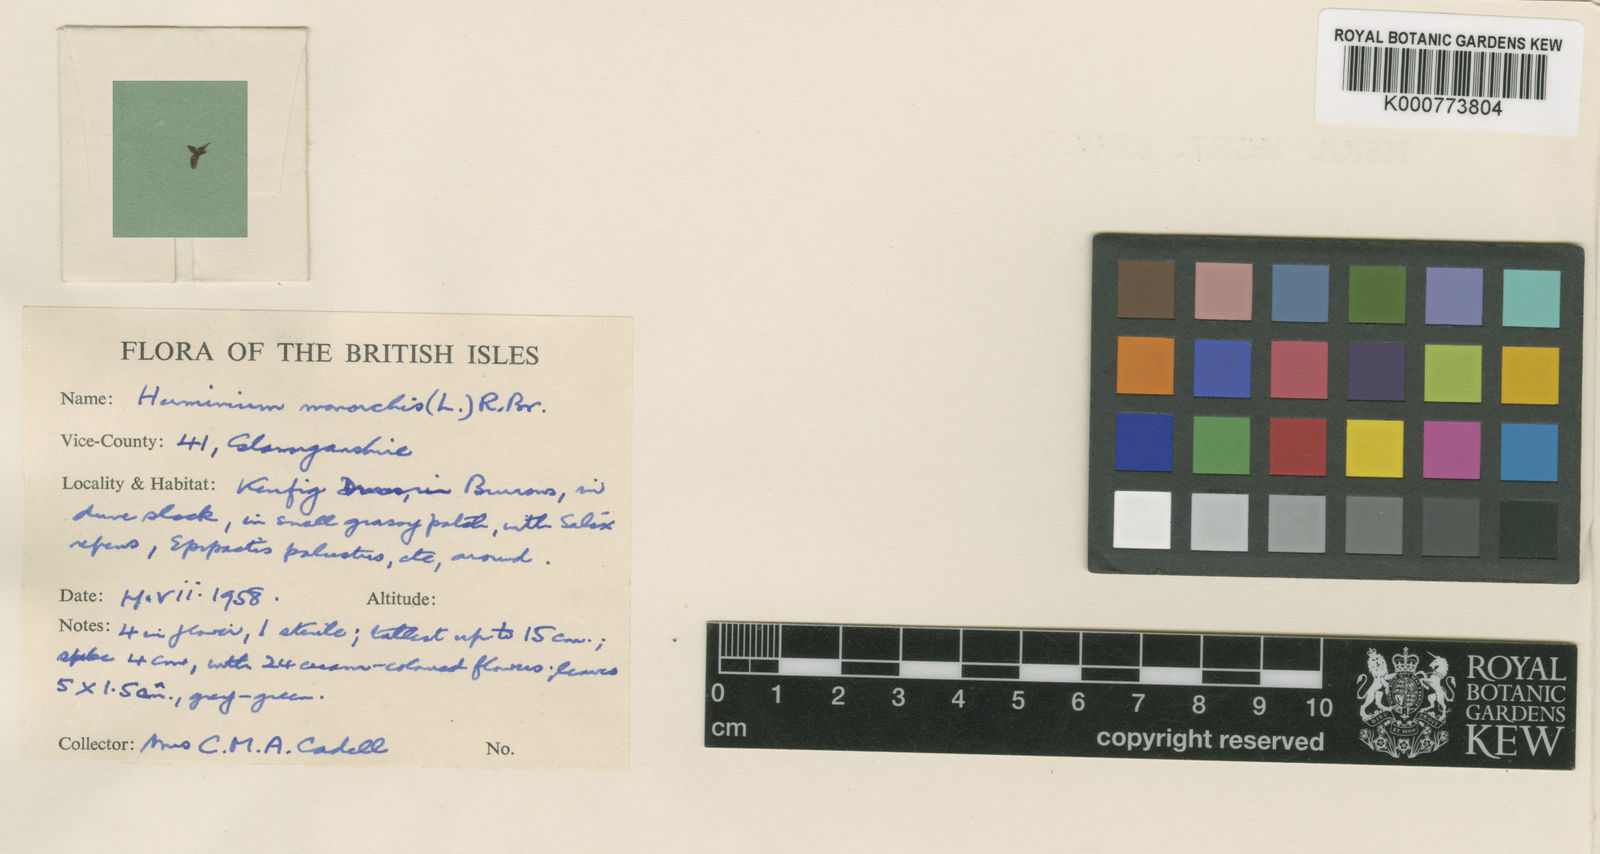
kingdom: Plantae
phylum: Tracheophyta
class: Liliopsida
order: Asparagales
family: Orchidaceae
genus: Herminium
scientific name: Herminium monorchis
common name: Musk orchid
